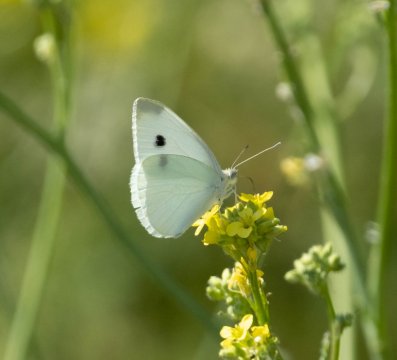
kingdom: Animalia
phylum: Arthropoda
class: Insecta
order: Lepidoptera
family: Pieridae
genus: Pieris
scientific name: Pieris rapae
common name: Cabbage White
